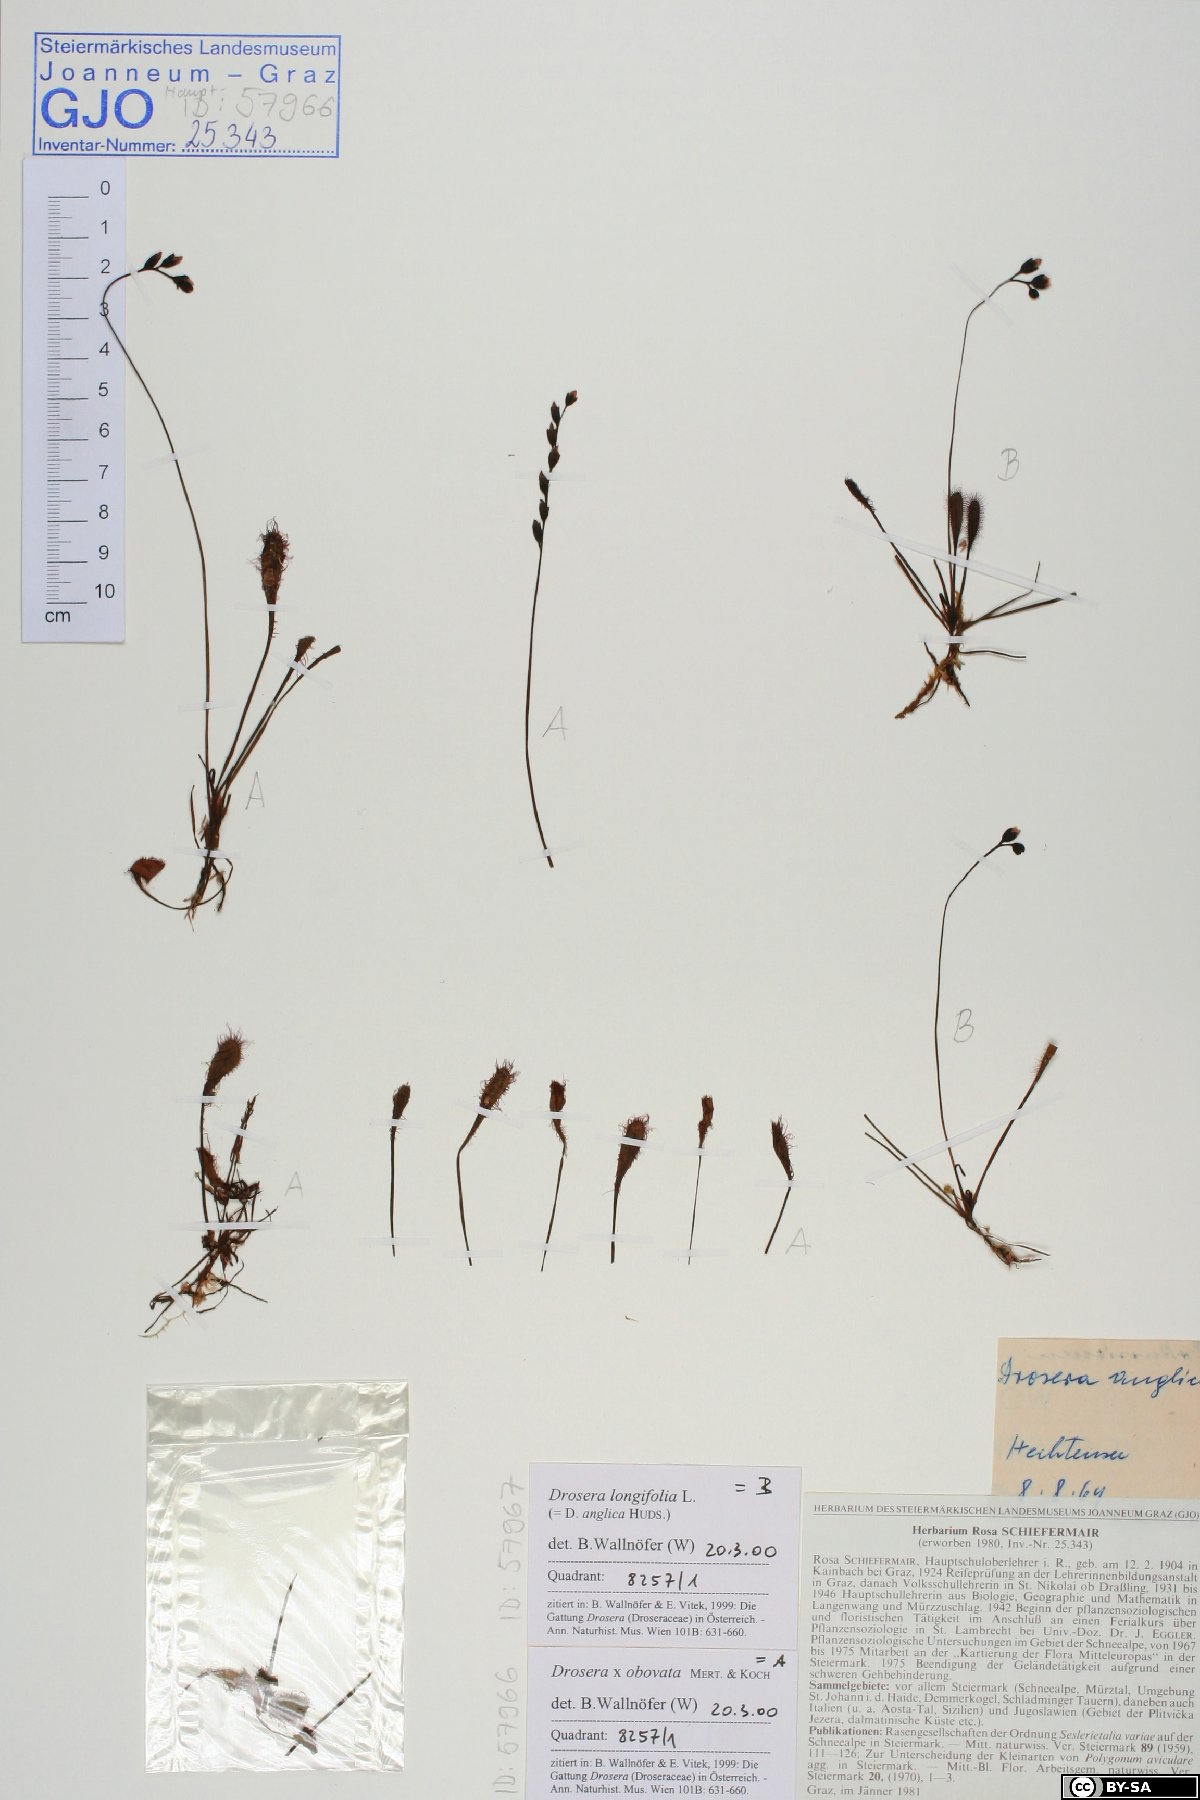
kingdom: Plantae
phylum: Tracheophyta
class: Magnoliopsida
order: Caryophyllales
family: Droseraceae
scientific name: Droseraceae
